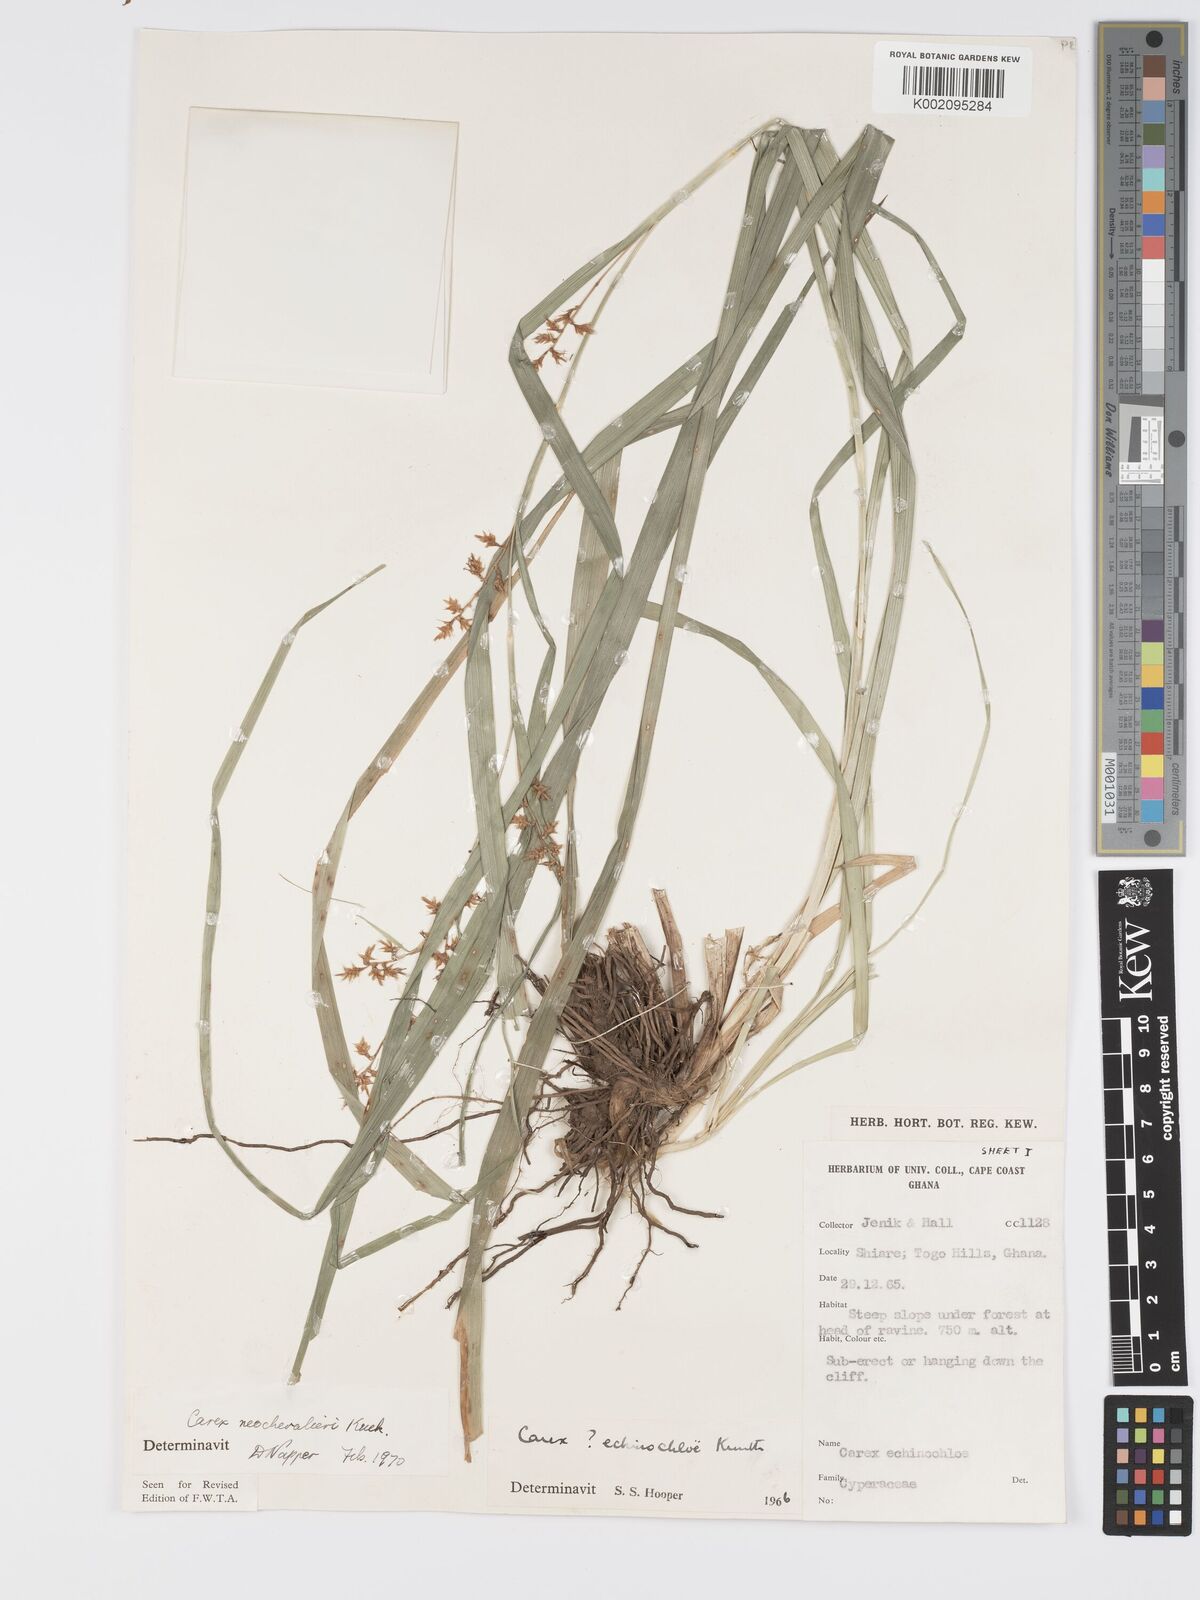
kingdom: Plantae
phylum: Tracheophyta
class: Liliopsida
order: Poales
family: Cyperaceae
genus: Carex
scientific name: Carex neochevalieri
